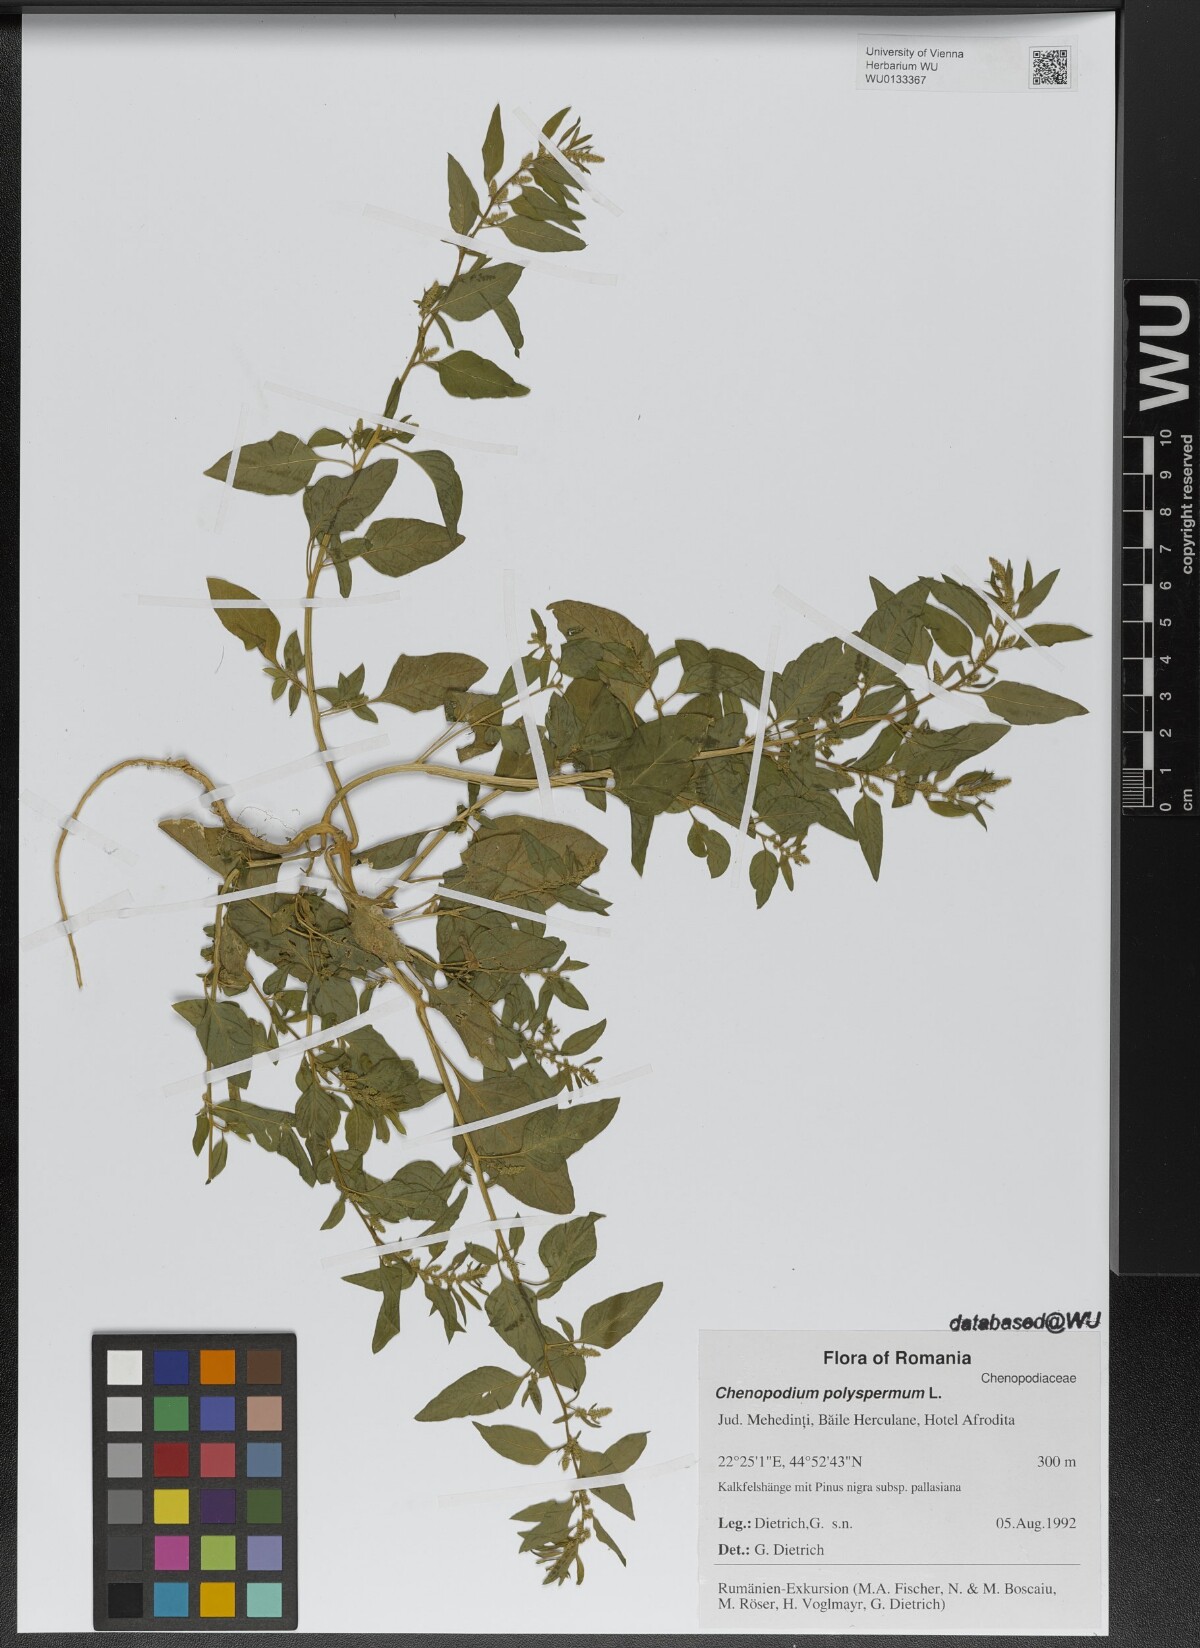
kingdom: Plantae
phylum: Tracheophyta
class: Magnoliopsida
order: Caryophyllales
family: Amaranthaceae
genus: Lipandra
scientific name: Lipandra polysperma
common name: Many-seed goosefoot
